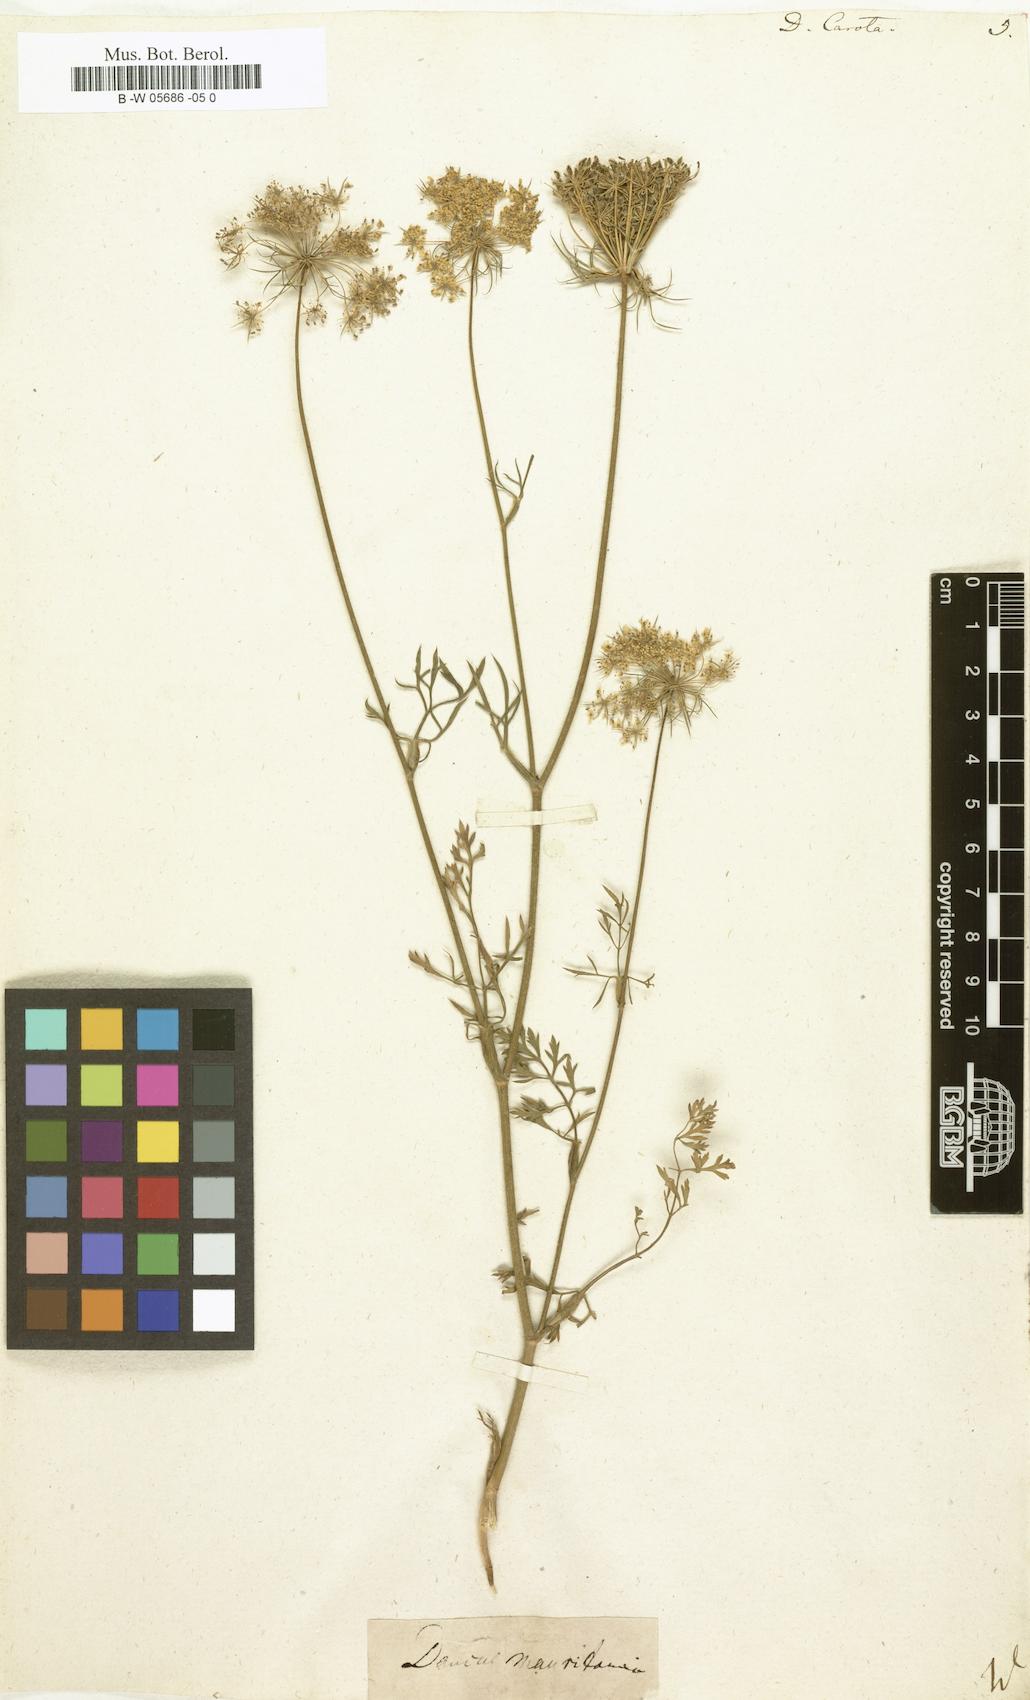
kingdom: Plantae
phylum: Tracheophyta
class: Magnoliopsida
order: Apiales
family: Apiaceae
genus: Daucus
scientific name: Daucus carota
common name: Wild carrot
